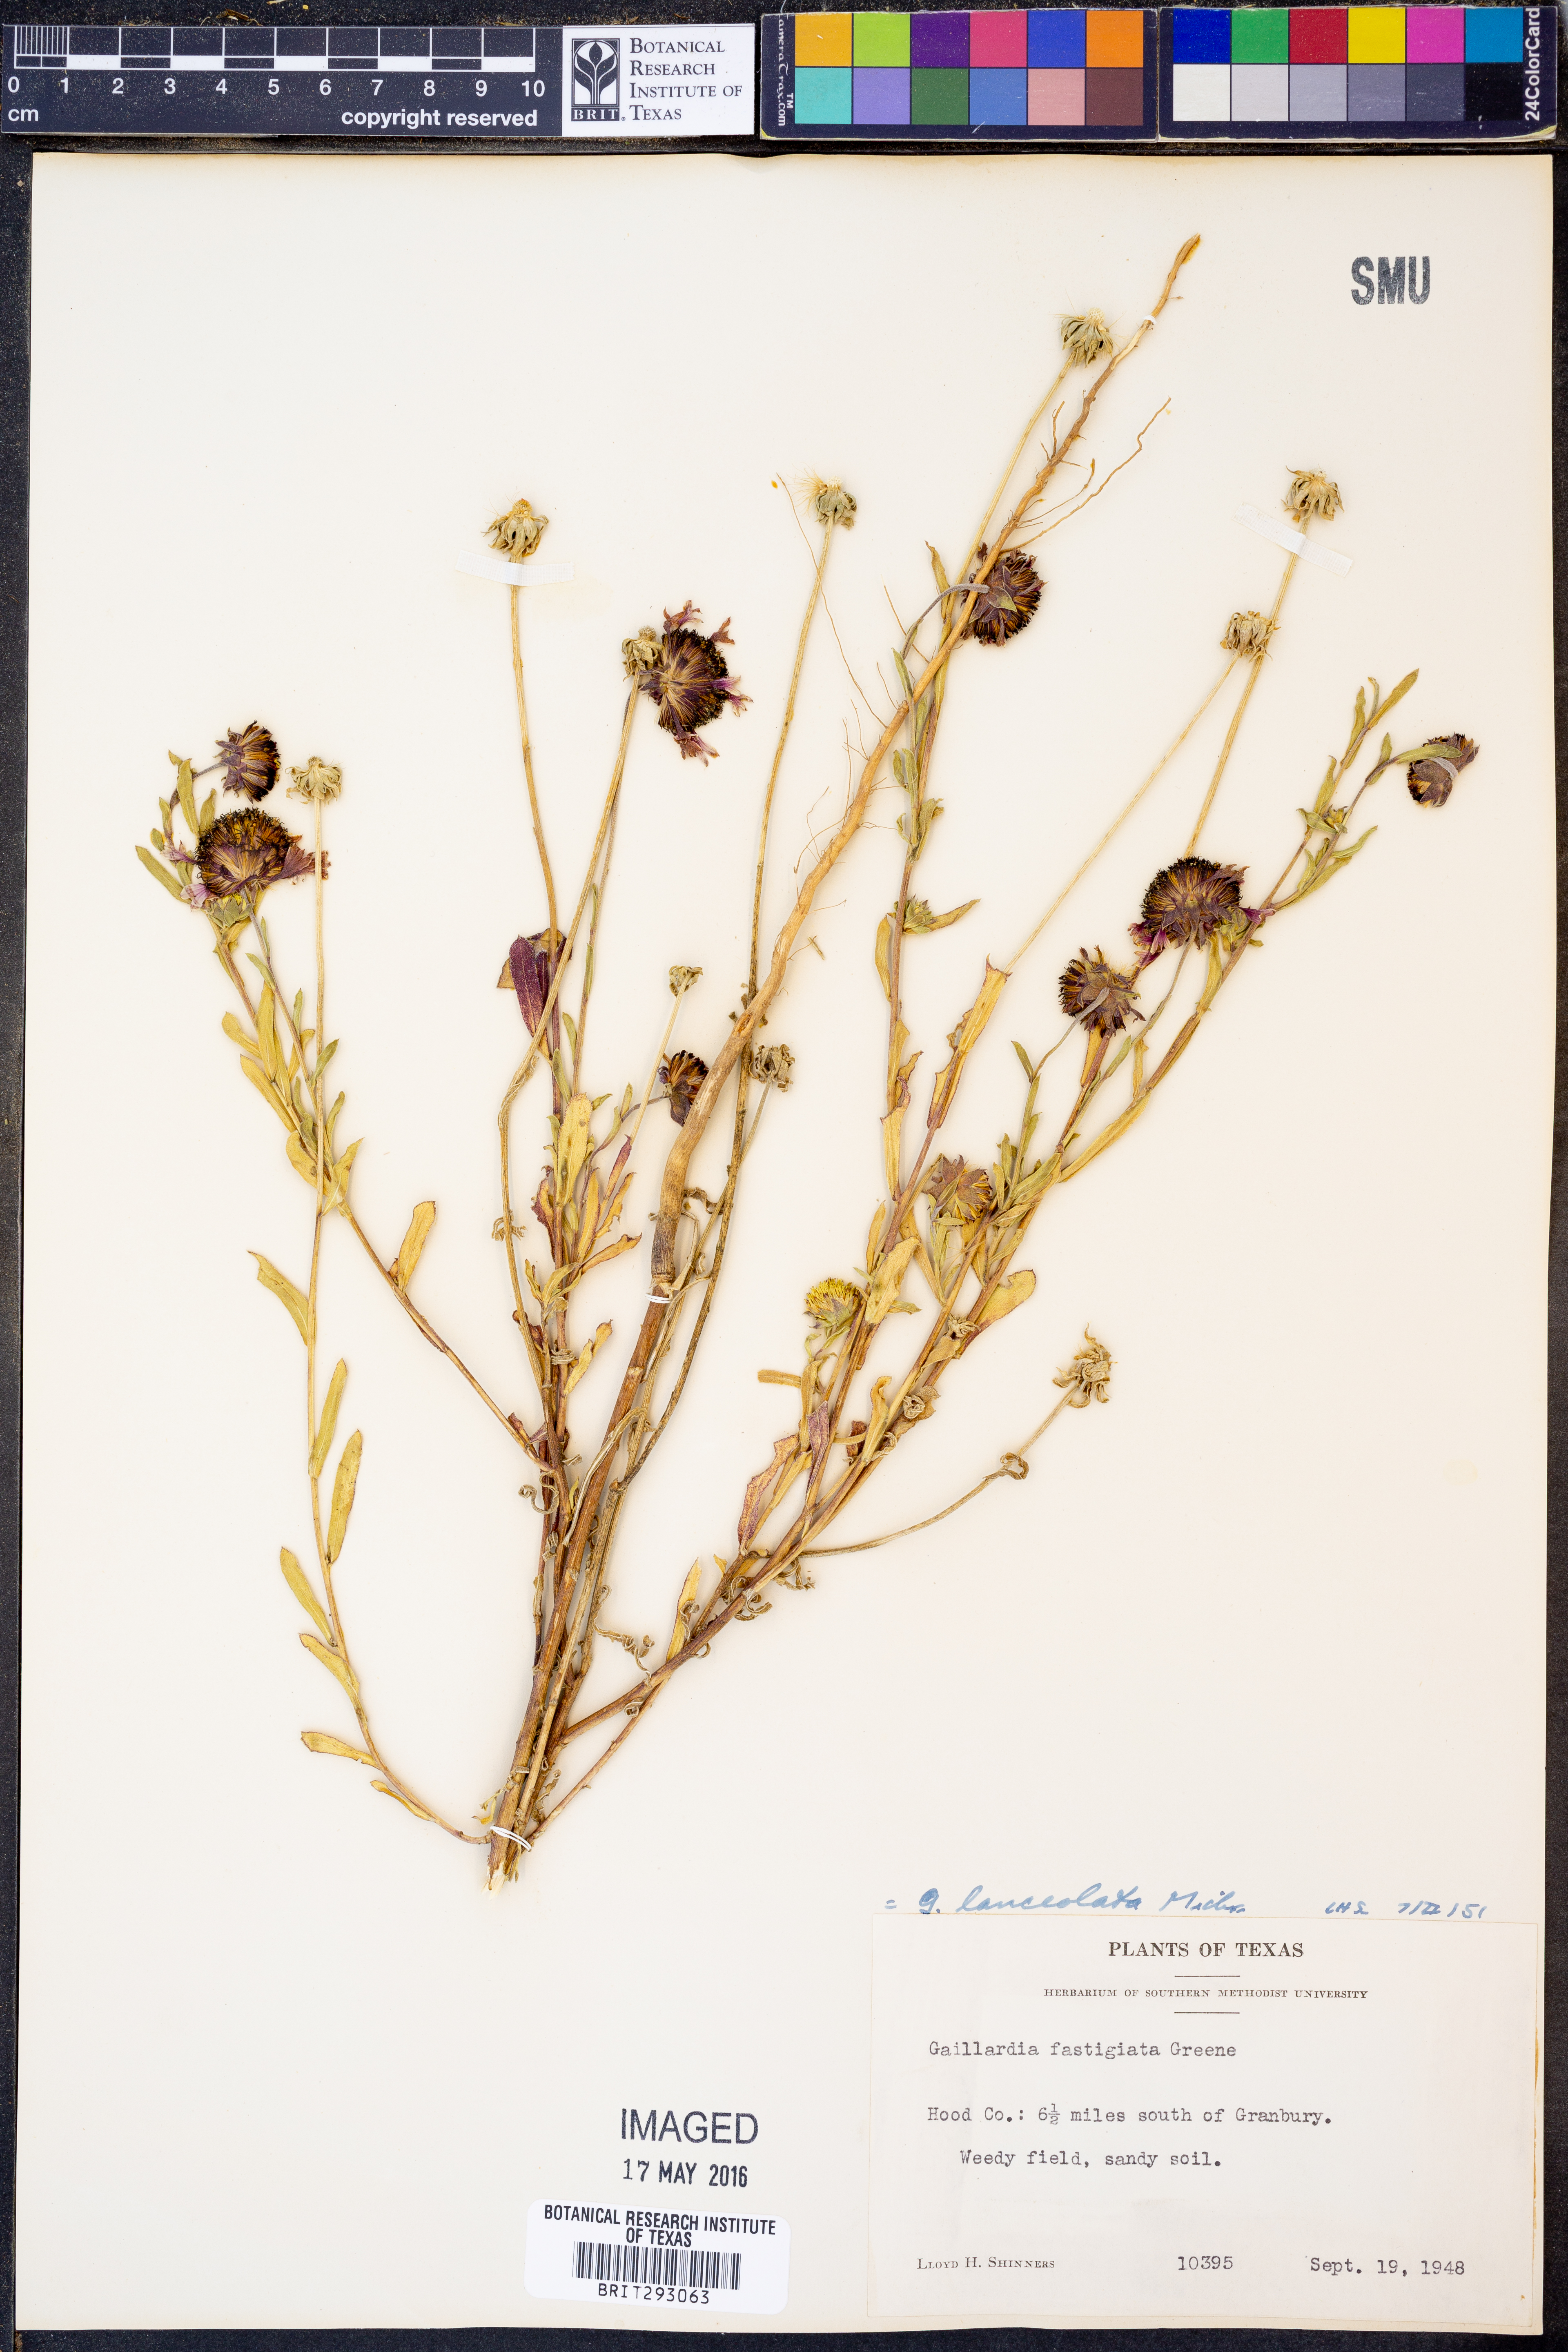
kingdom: Plantae
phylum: Tracheophyta
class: Magnoliopsida
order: Asterales
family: Asteraceae
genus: Gaillardia
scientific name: Gaillardia aestivalis
